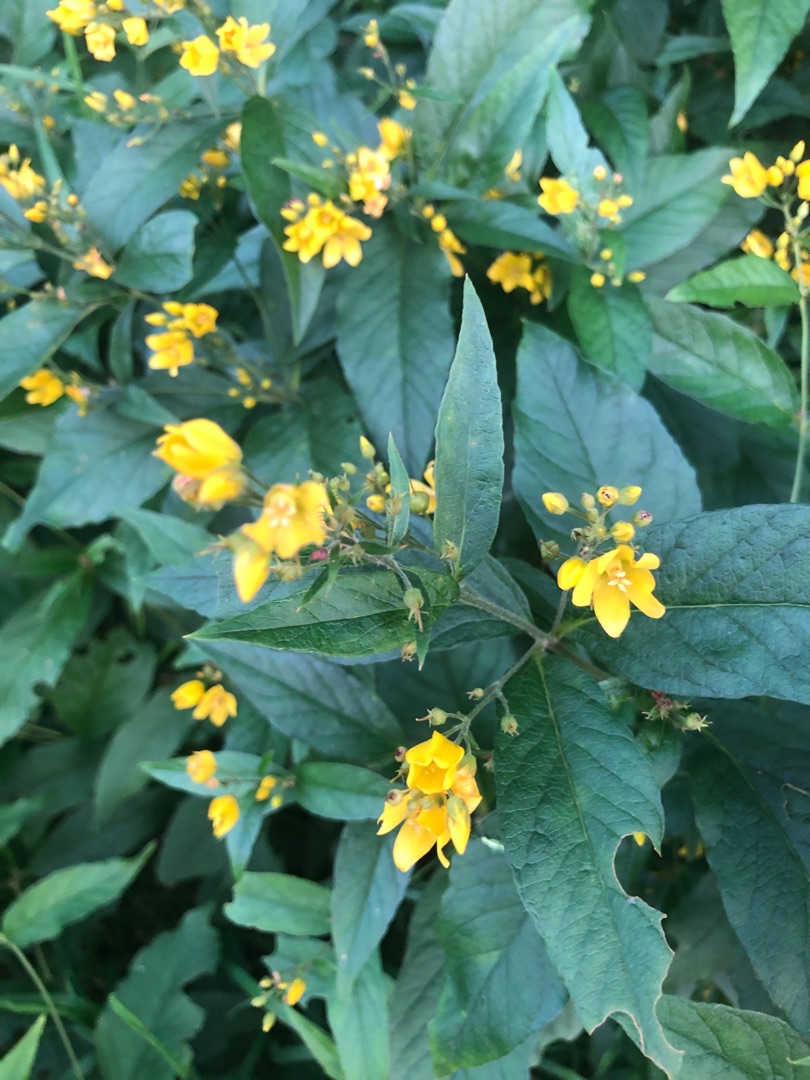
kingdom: Plantae
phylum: Tracheophyta
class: Magnoliopsida
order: Ericales
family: Primulaceae
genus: Lysimachia
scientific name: Lysimachia vulgaris
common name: Almindelig fredløs
